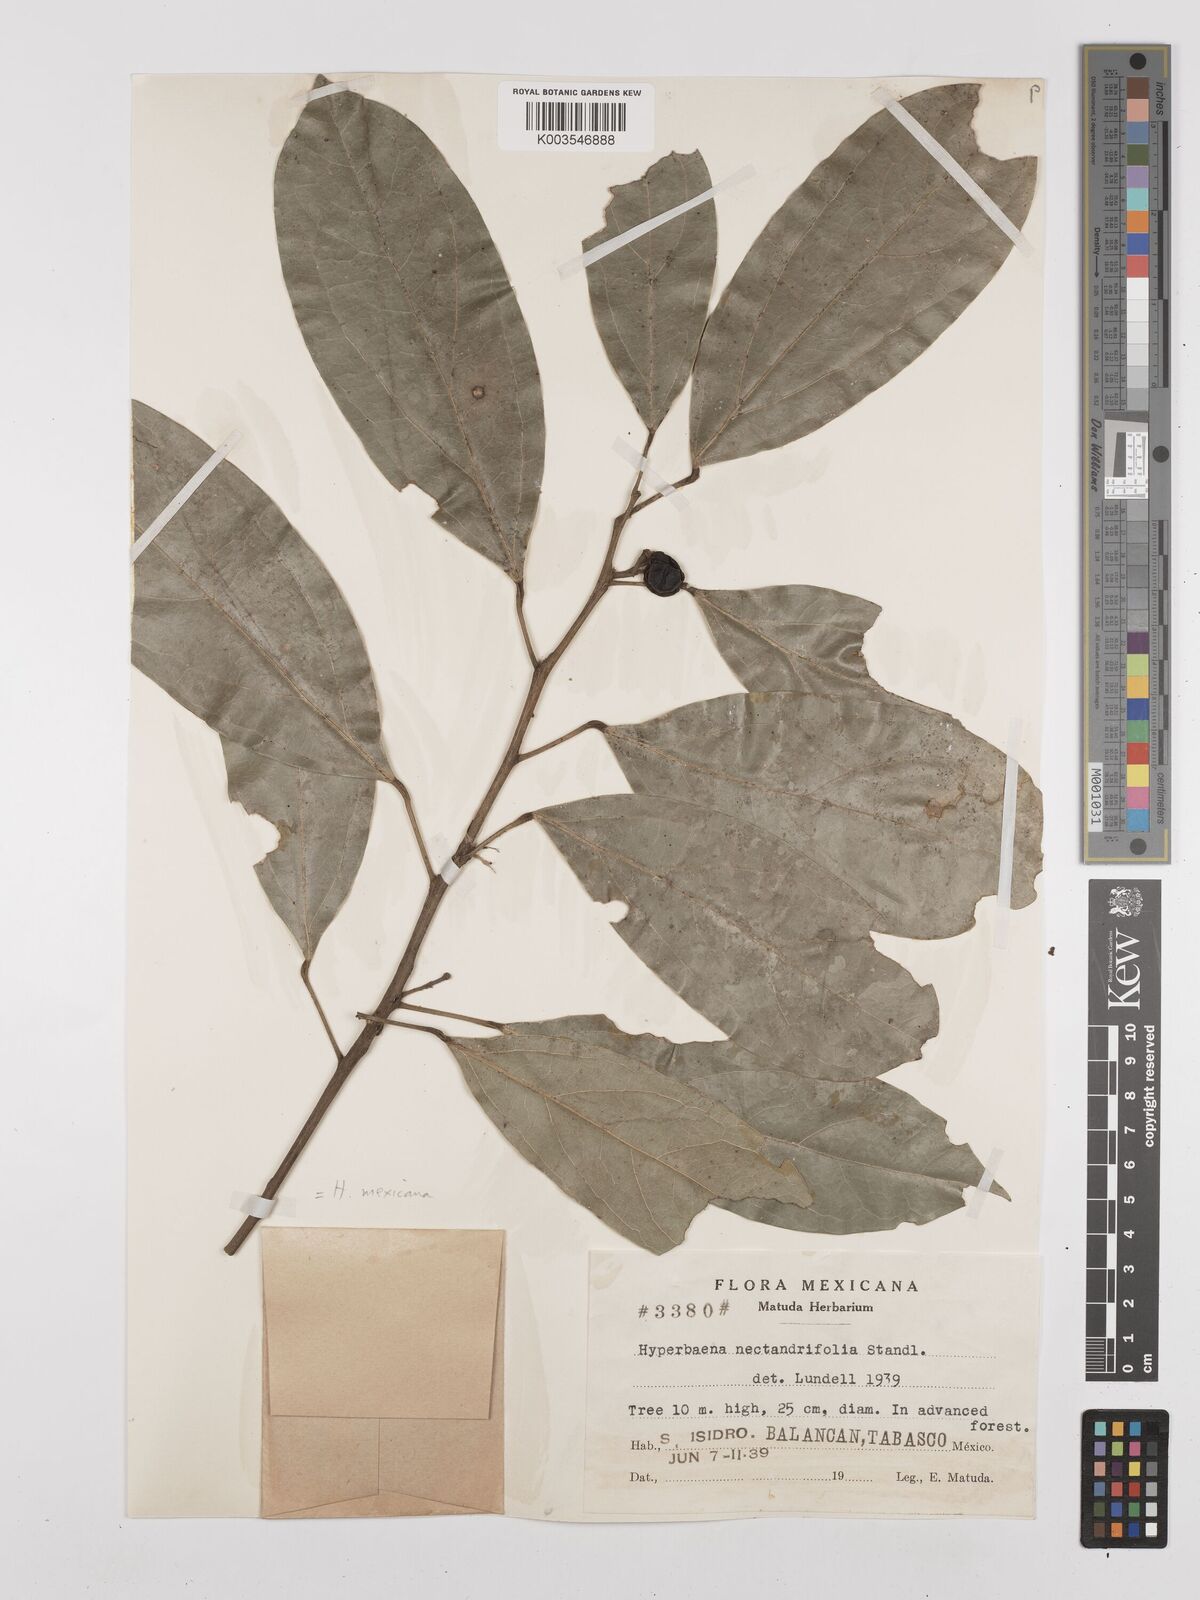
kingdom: Plantae
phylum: Tracheophyta
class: Magnoliopsida
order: Ranunculales
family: Menispermaceae
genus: Hyperbaena
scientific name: Hyperbaena mexicana
